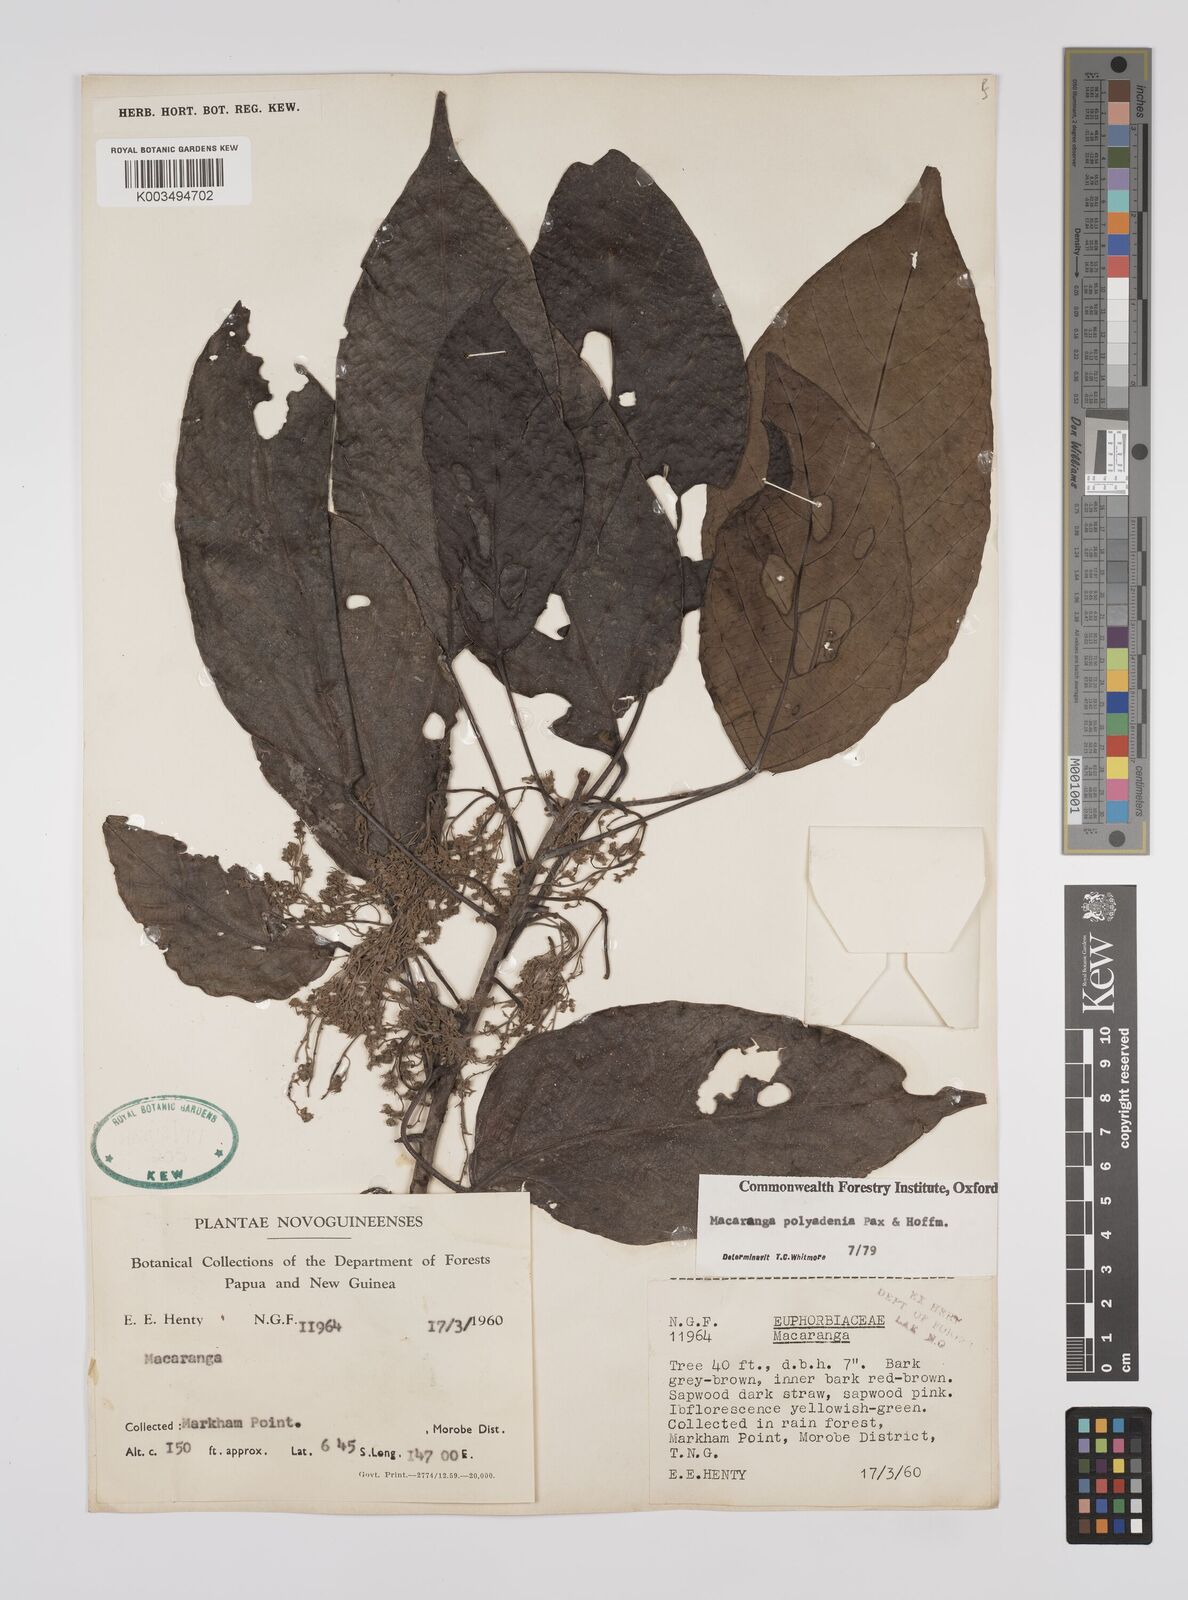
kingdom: Plantae
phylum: Tracheophyta
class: Magnoliopsida
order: Malpighiales
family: Euphorbiaceae
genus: Macaranga
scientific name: Macaranga polyadenia
